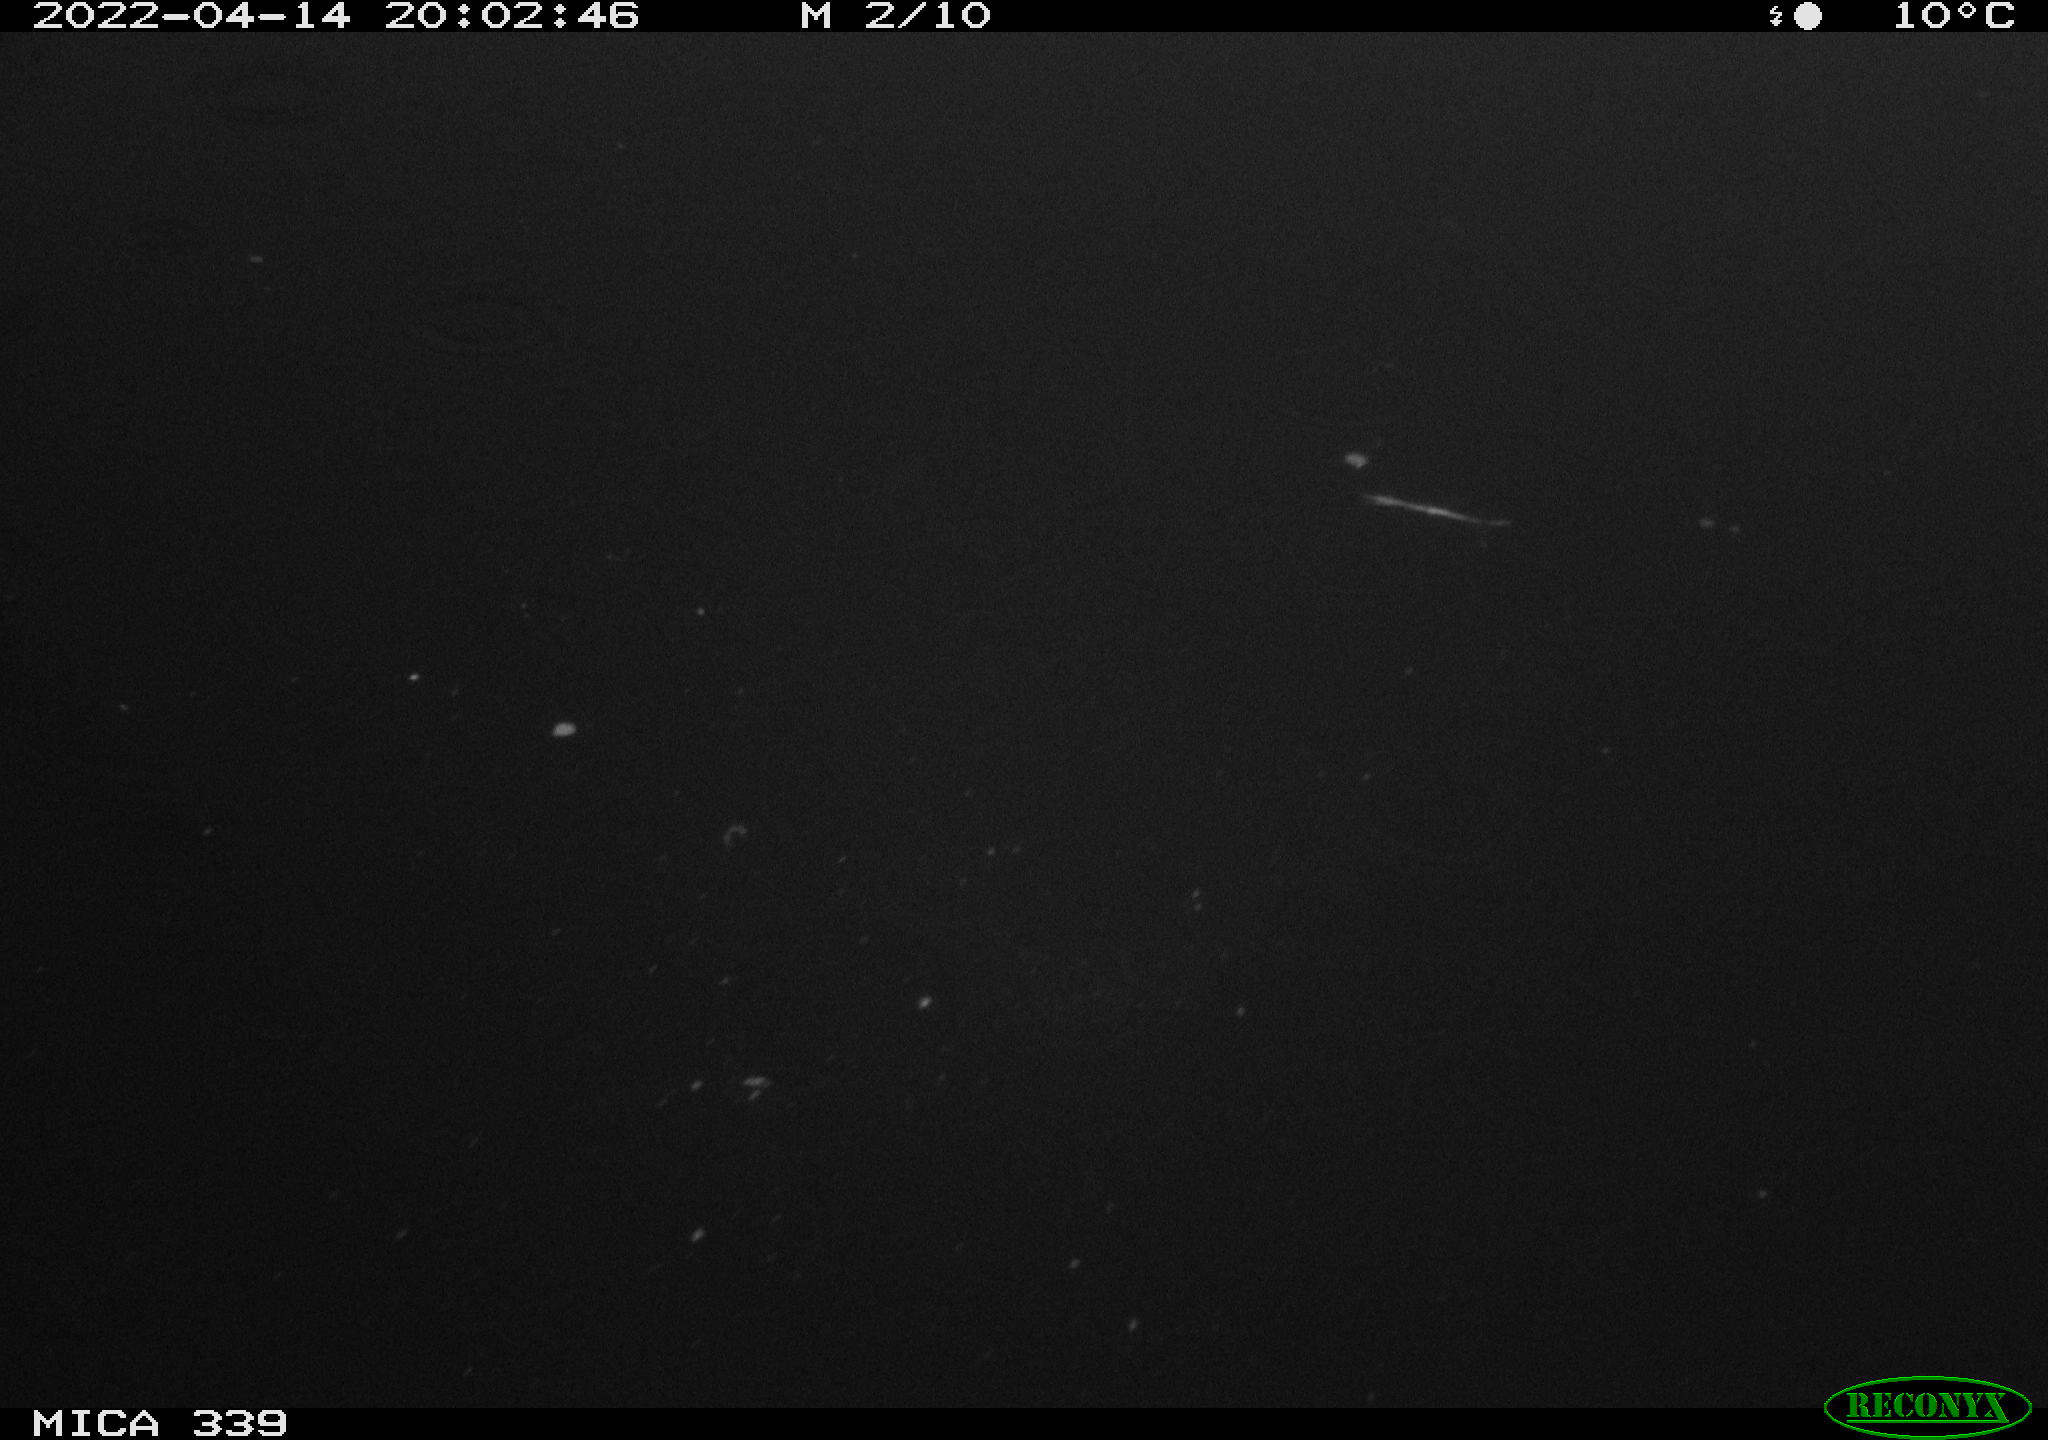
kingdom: Animalia
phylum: Chordata
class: Aves
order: Pelecaniformes
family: Ardeidae
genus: Ardea
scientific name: Ardea cinerea
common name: Grey heron
